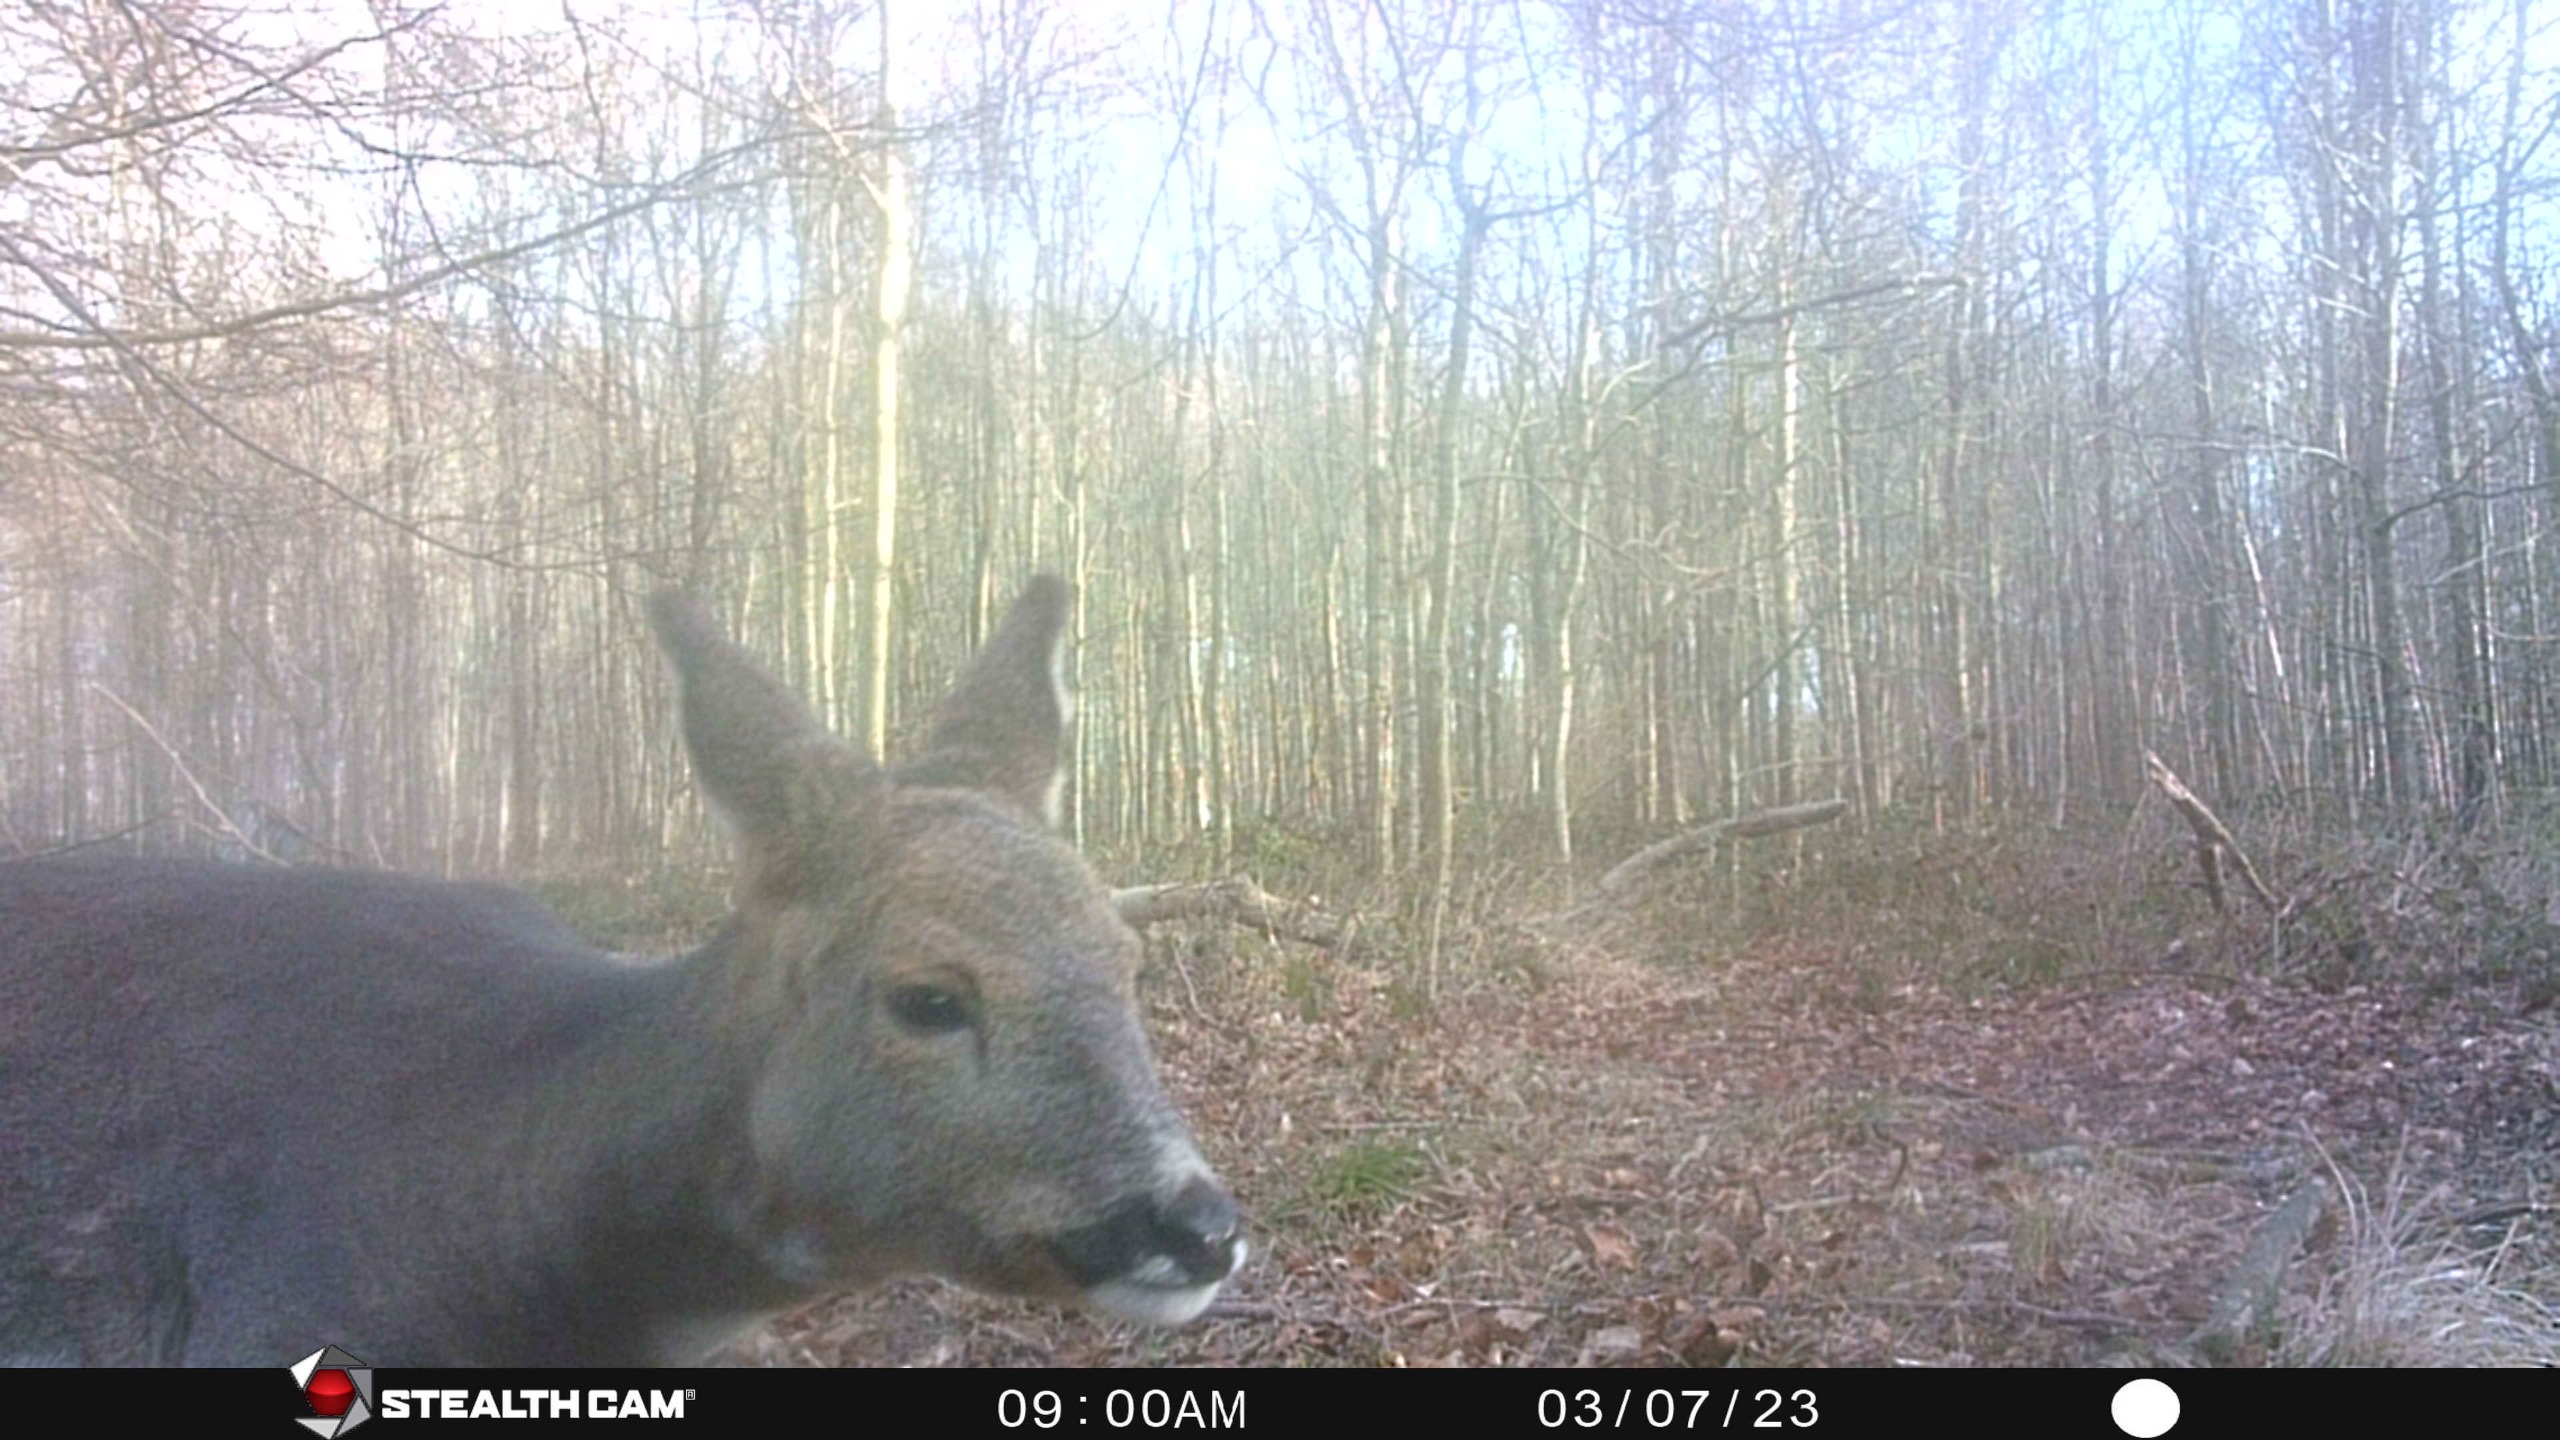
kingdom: Animalia
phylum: Chordata
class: Mammalia
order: Artiodactyla
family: Cervidae
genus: Capreolus
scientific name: Capreolus capreolus
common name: Rådyr
